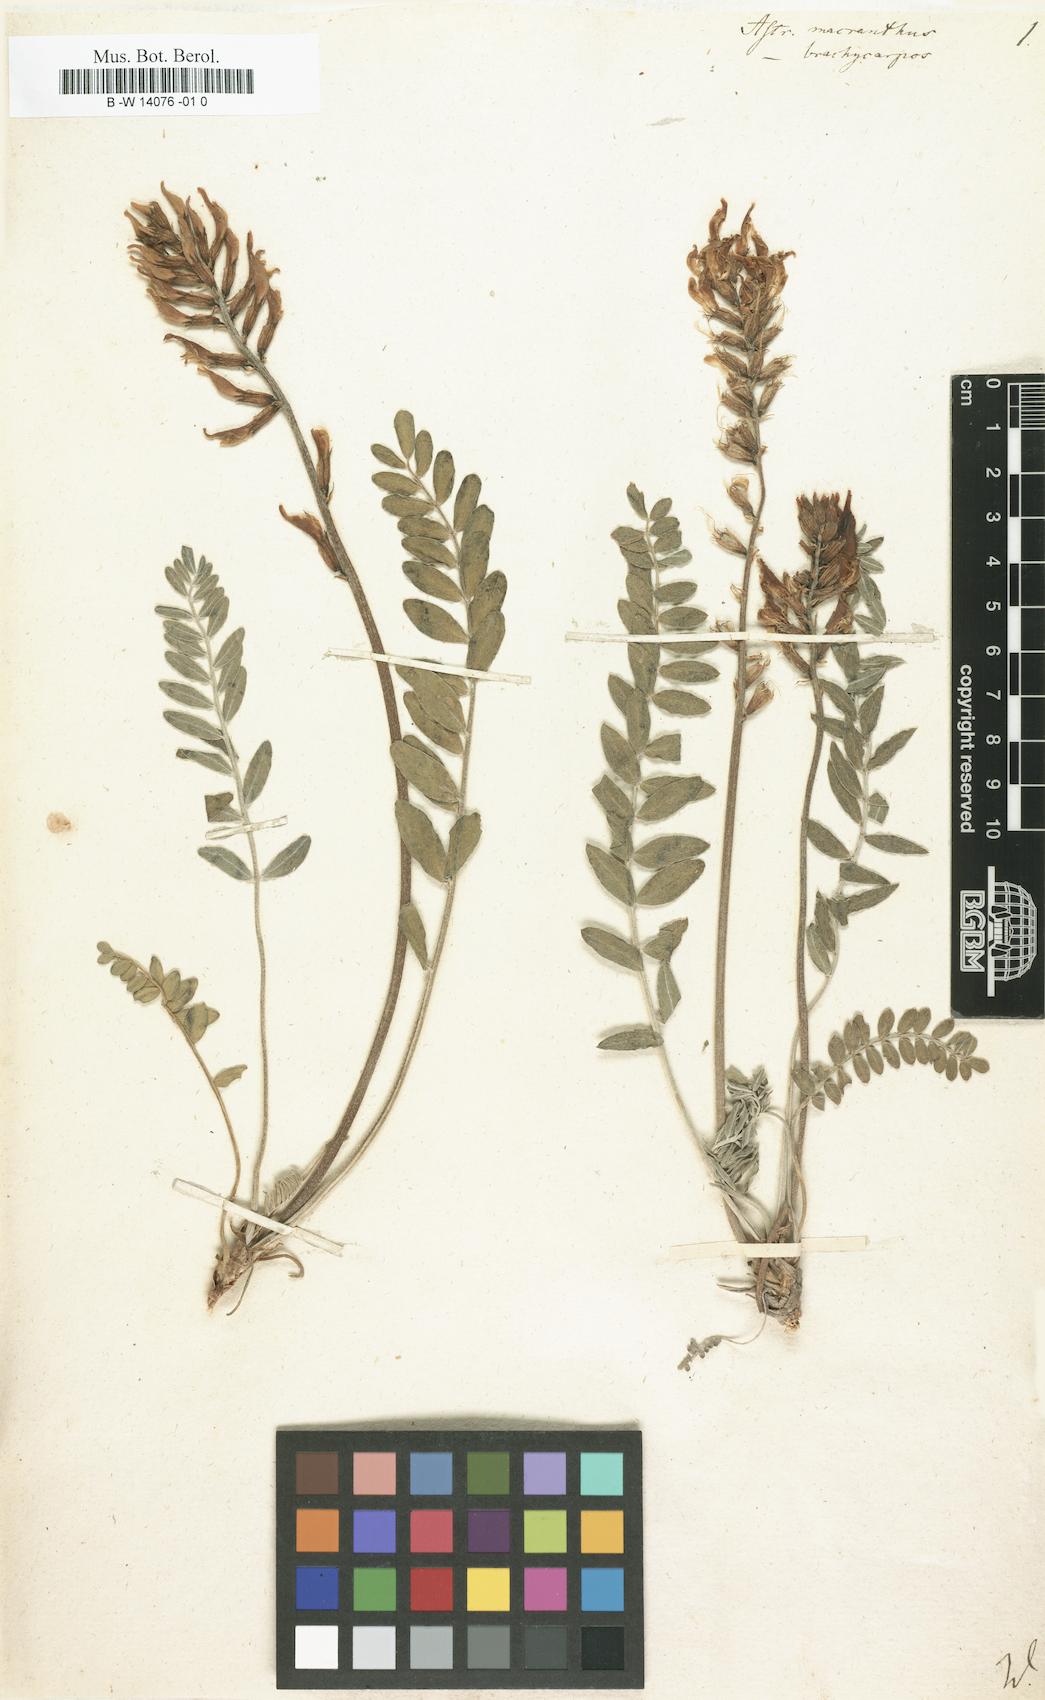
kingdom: Plantae
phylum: Tracheophyta
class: Magnoliopsida
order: Fabales
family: Fabaceae
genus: Astragalus
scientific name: Astragalus brachycarpus
